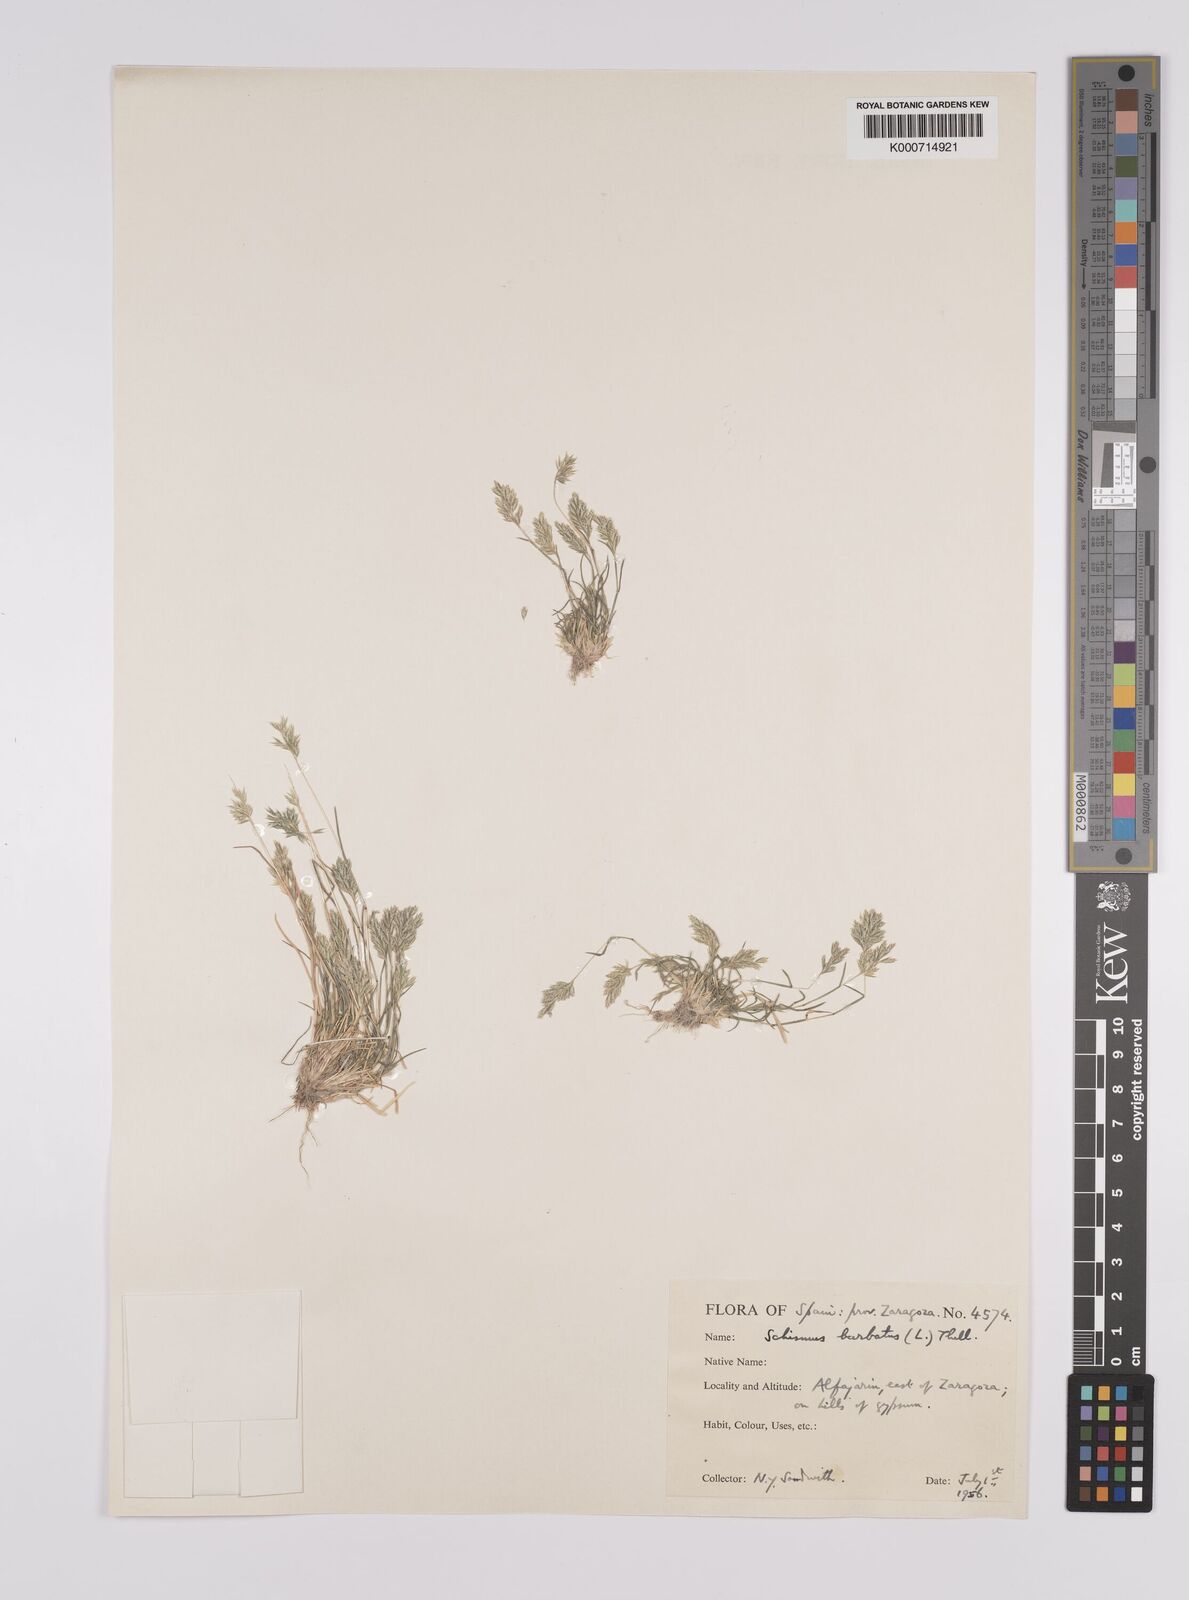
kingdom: Plantae
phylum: Tracheophyta
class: Liliopsida
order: Poales
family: Poaceae
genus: Schismus
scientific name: Schismus barbatus
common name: Kelch-grass
